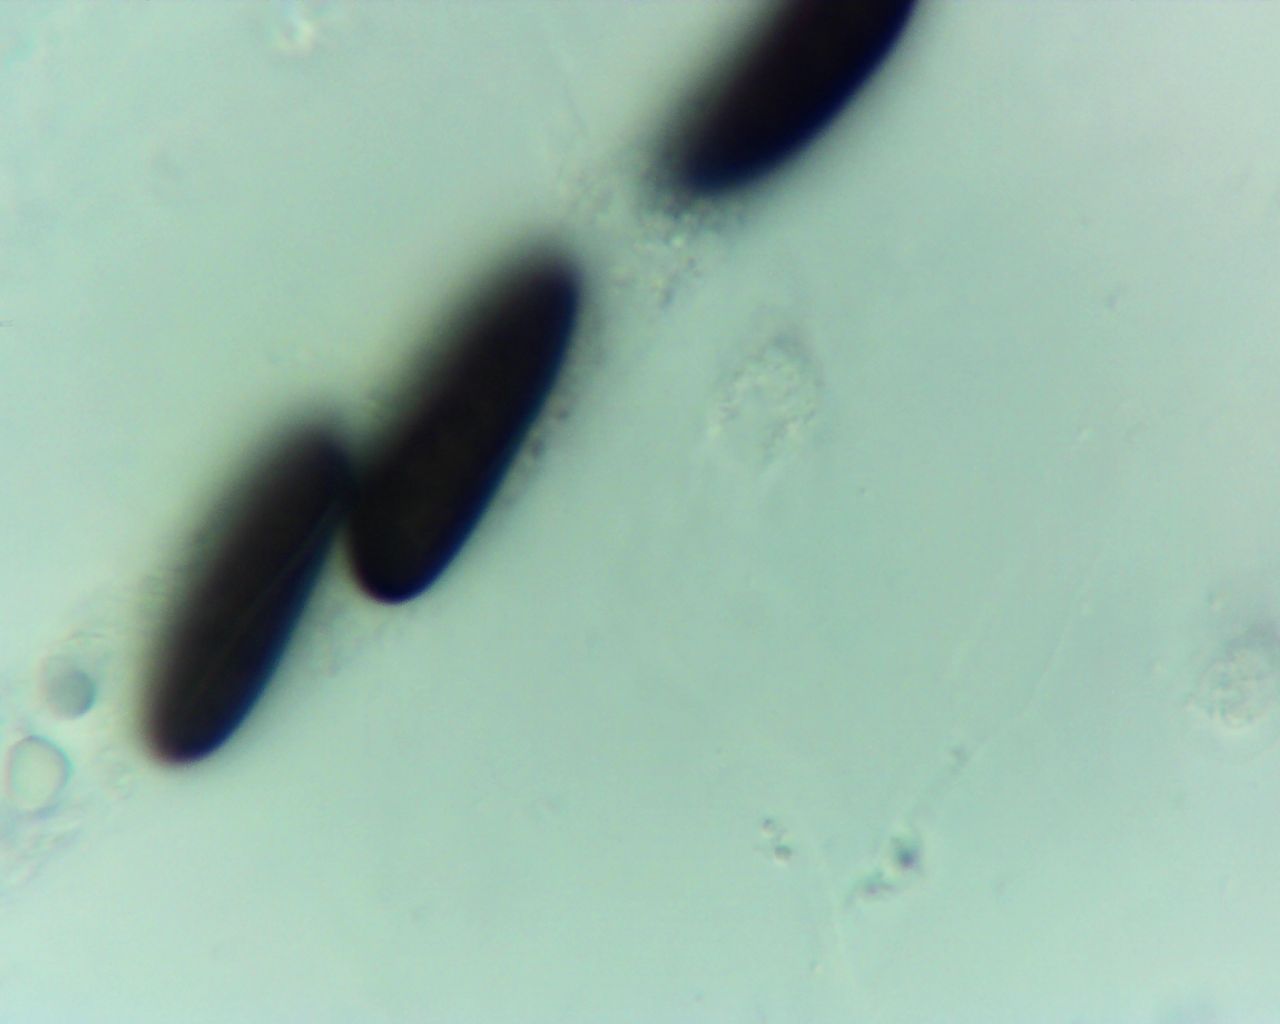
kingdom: Fungi
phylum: Ascomycota
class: Sordariomycetes
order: Xylariales
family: Xylariaceae
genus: Rosellinia
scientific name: Rosellinia marcucciana
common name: måtteløs kulkaviar
